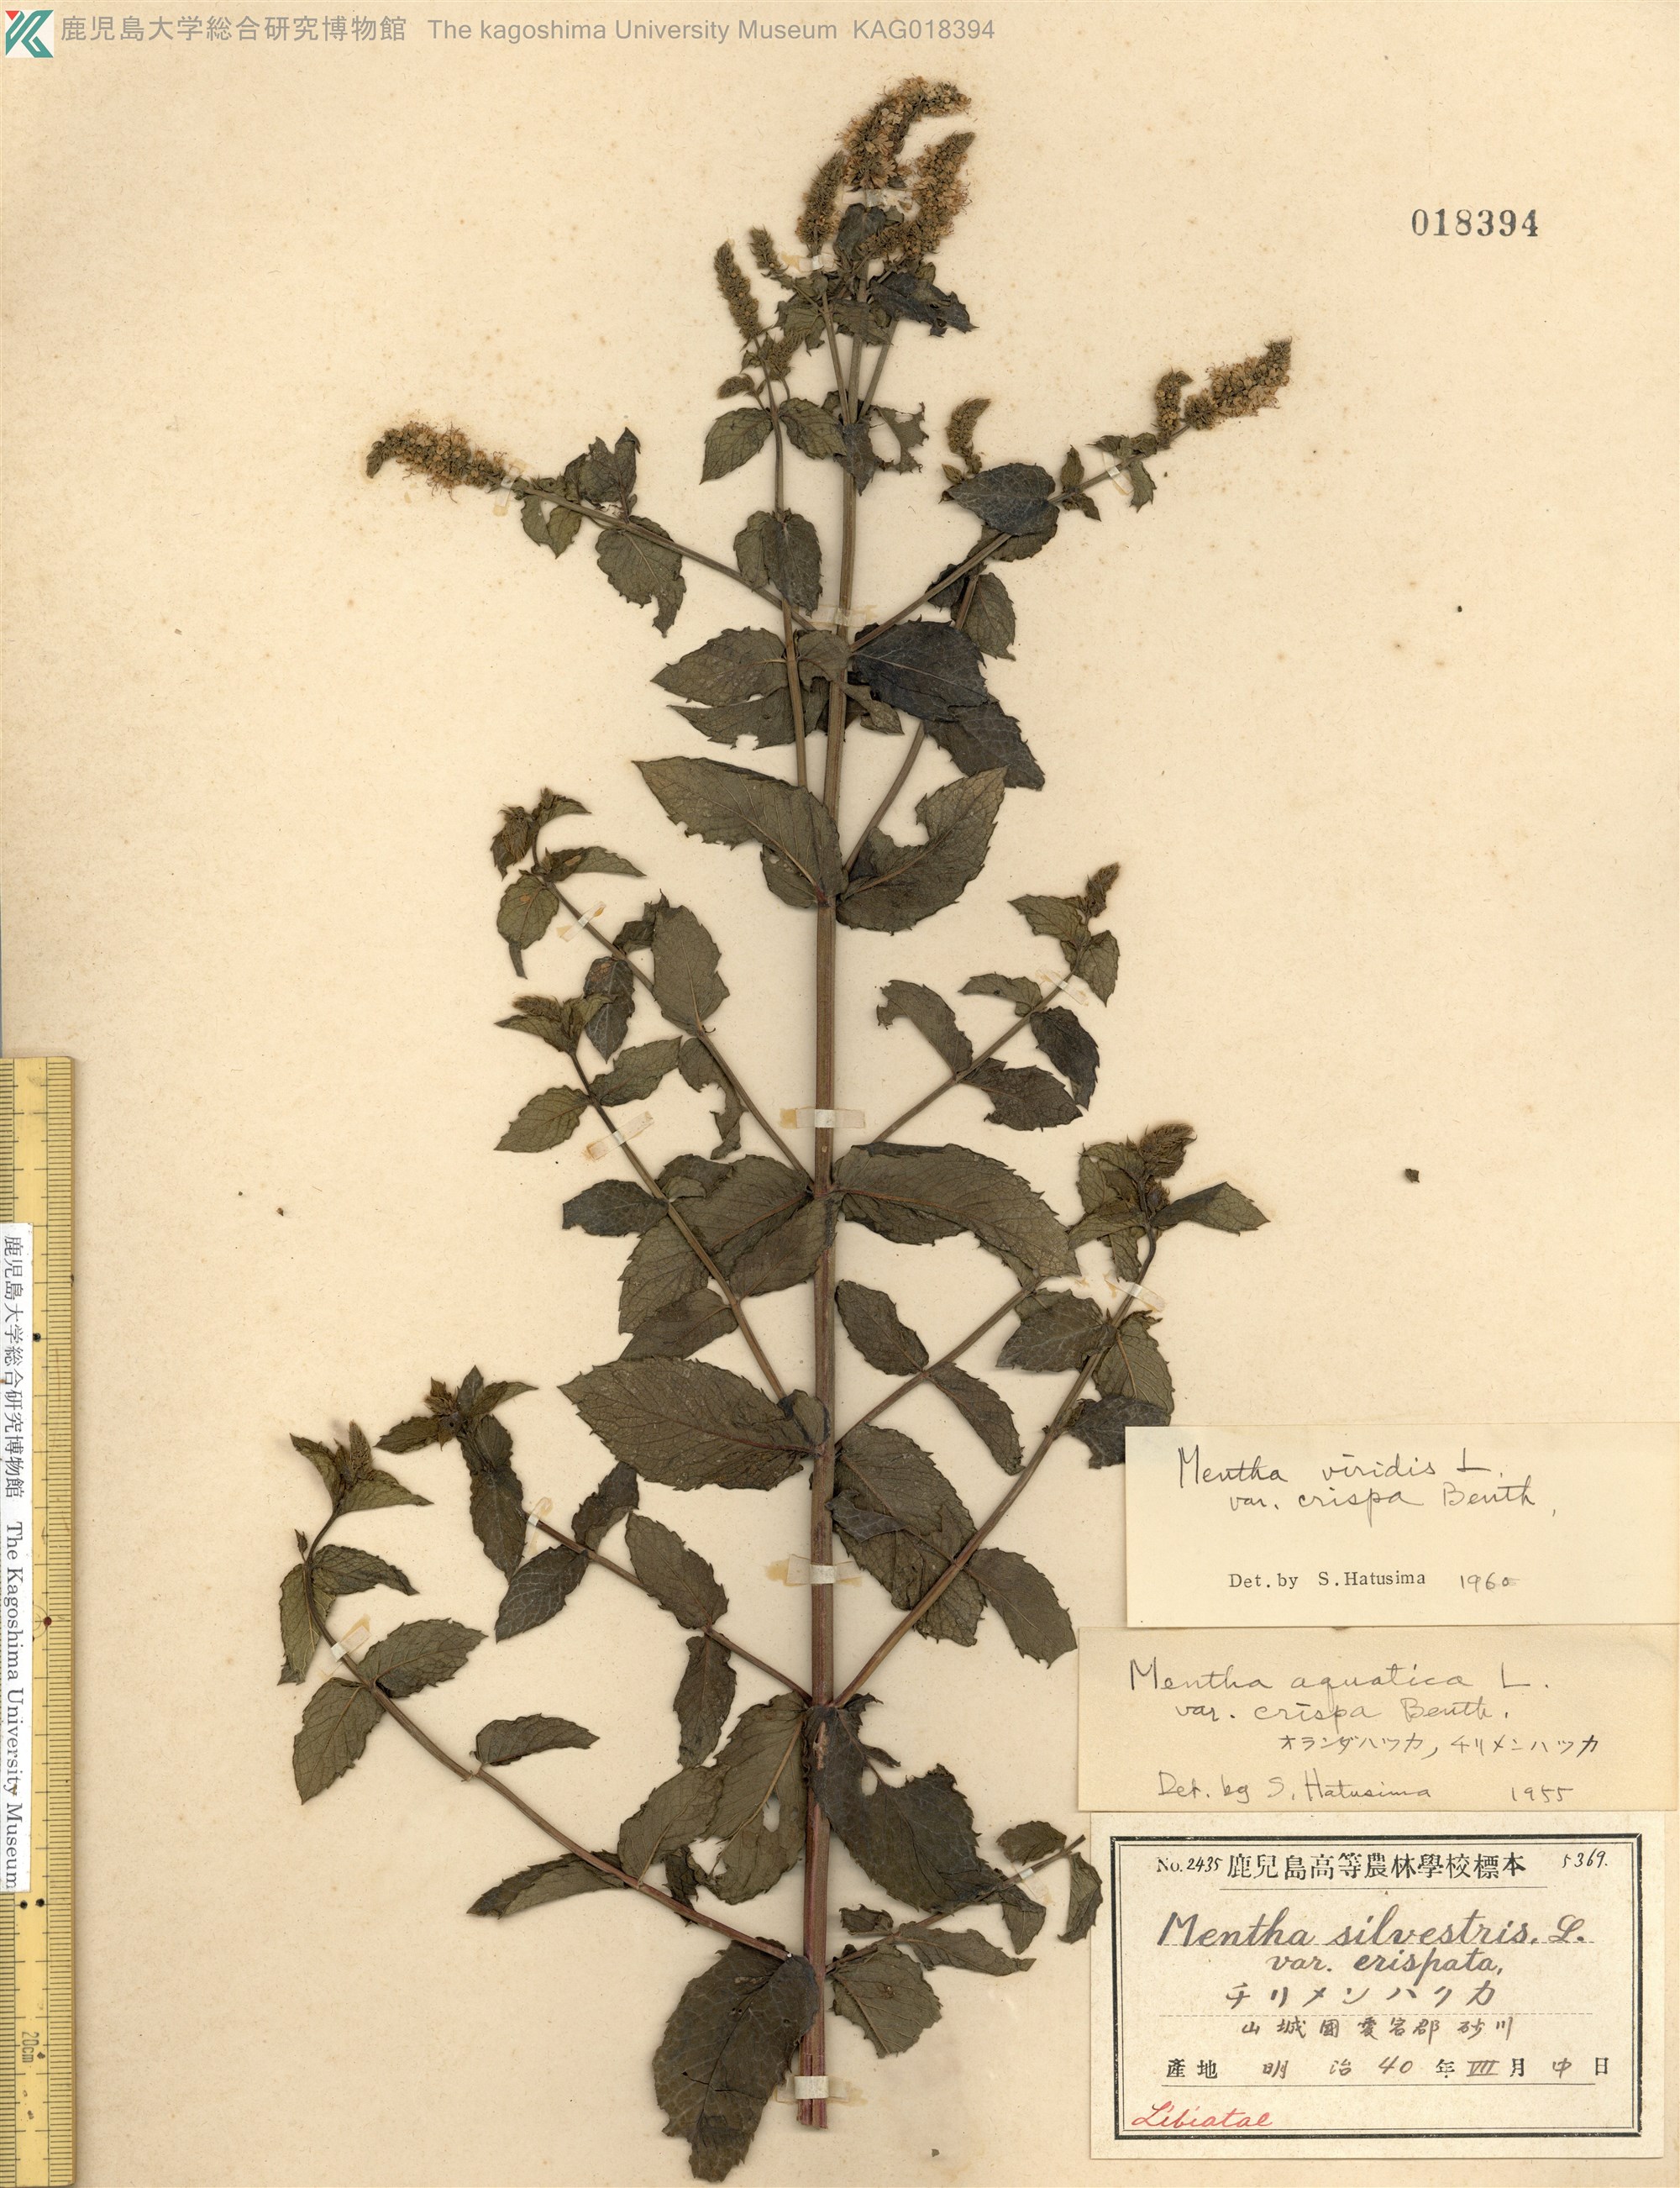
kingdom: Plantae
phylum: Tracheophyta
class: Magnoliopsida
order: Lamiales
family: Lamiaceae
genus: Mentha
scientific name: Mentha spicata
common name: Spearmint
